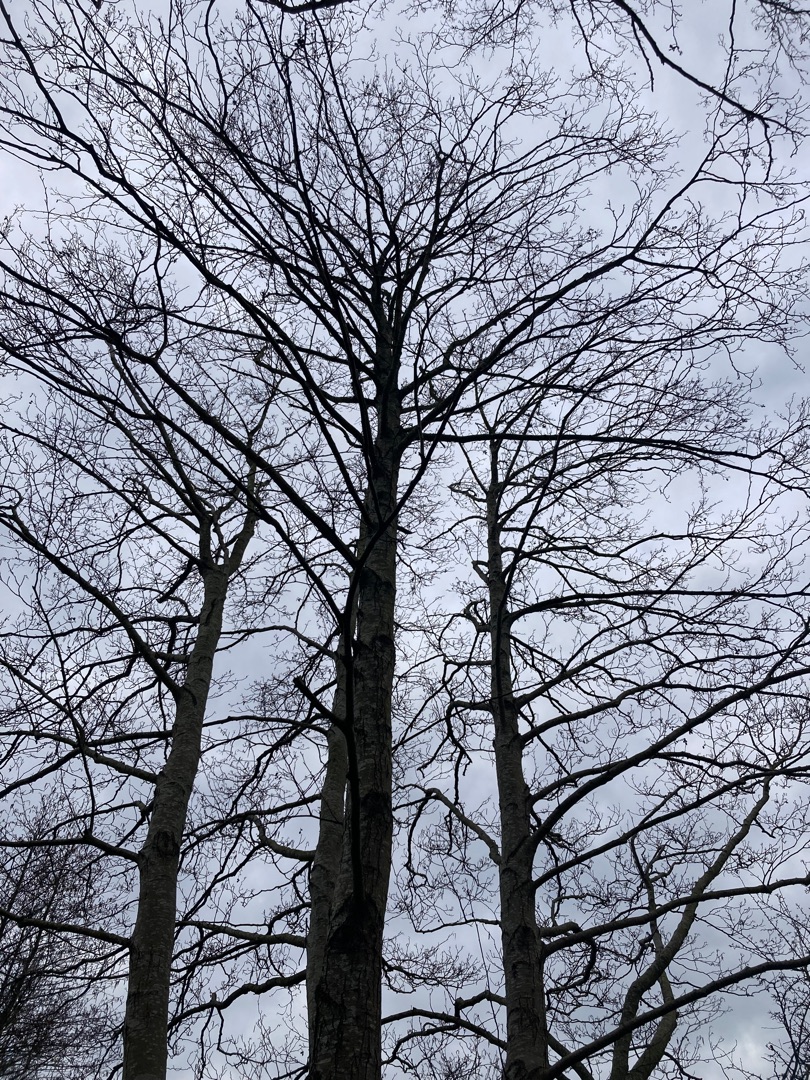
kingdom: Plantae
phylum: Tracheophyta
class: Magnoliopsida
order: Fagales
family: Betulaceae
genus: Alnus
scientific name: Alnus glutinosa
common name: Rød-el
